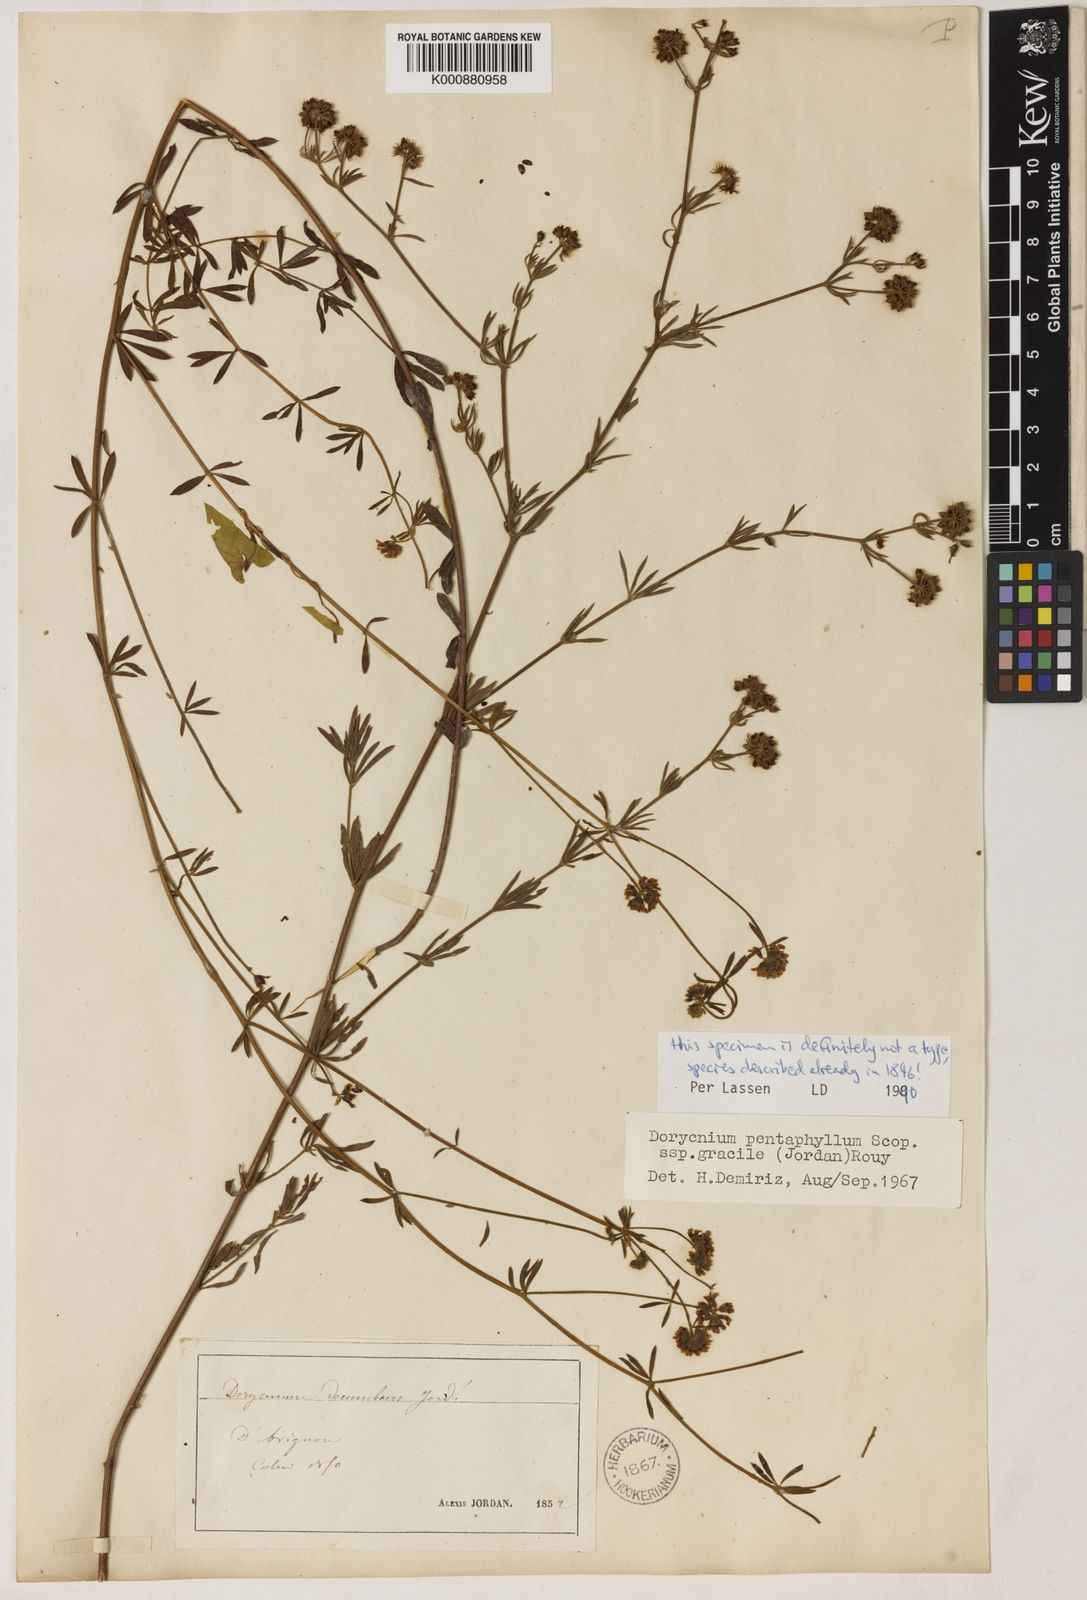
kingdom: Plantae
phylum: Tracheophyta
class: Magnoliopsida
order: Fabales
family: Fabaceae
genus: Lotus
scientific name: Lotus jordanii
